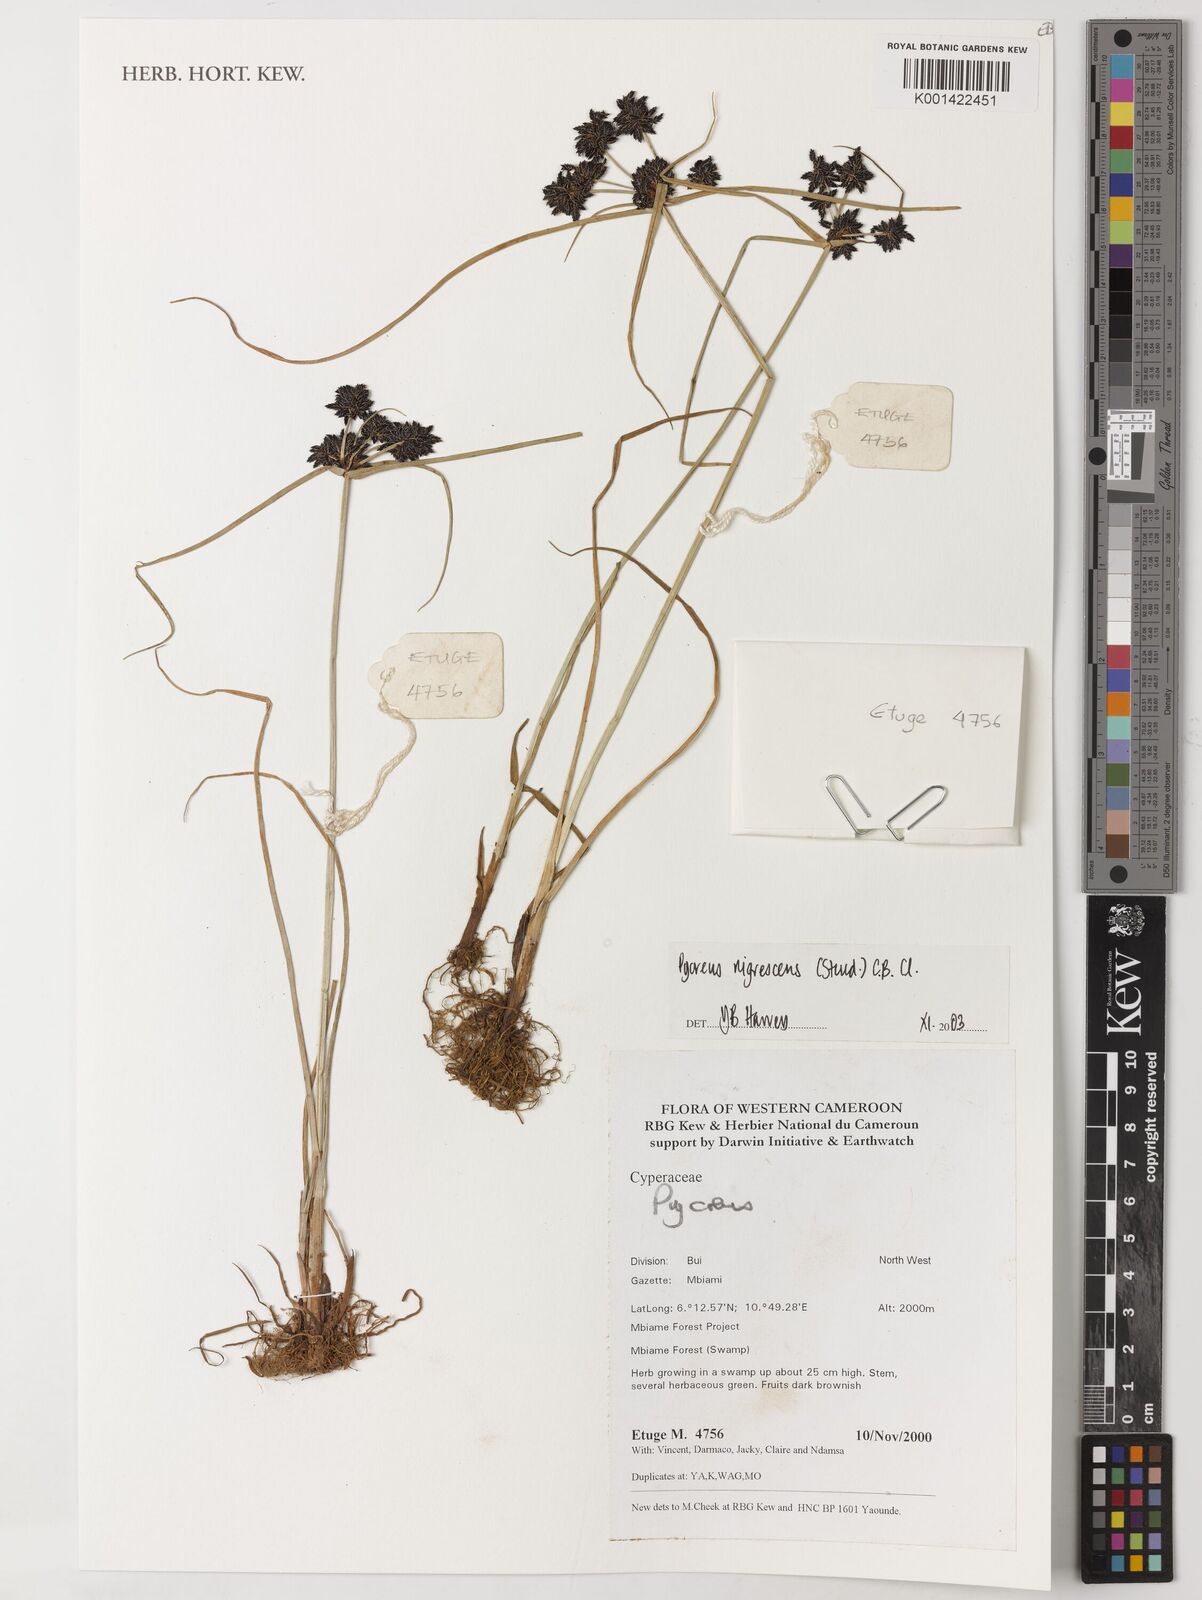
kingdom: Plantae
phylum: Tracheophyta
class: Liliopsida
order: Poales
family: Cyperaceae
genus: Cyperus
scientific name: Cyperus nigricans
